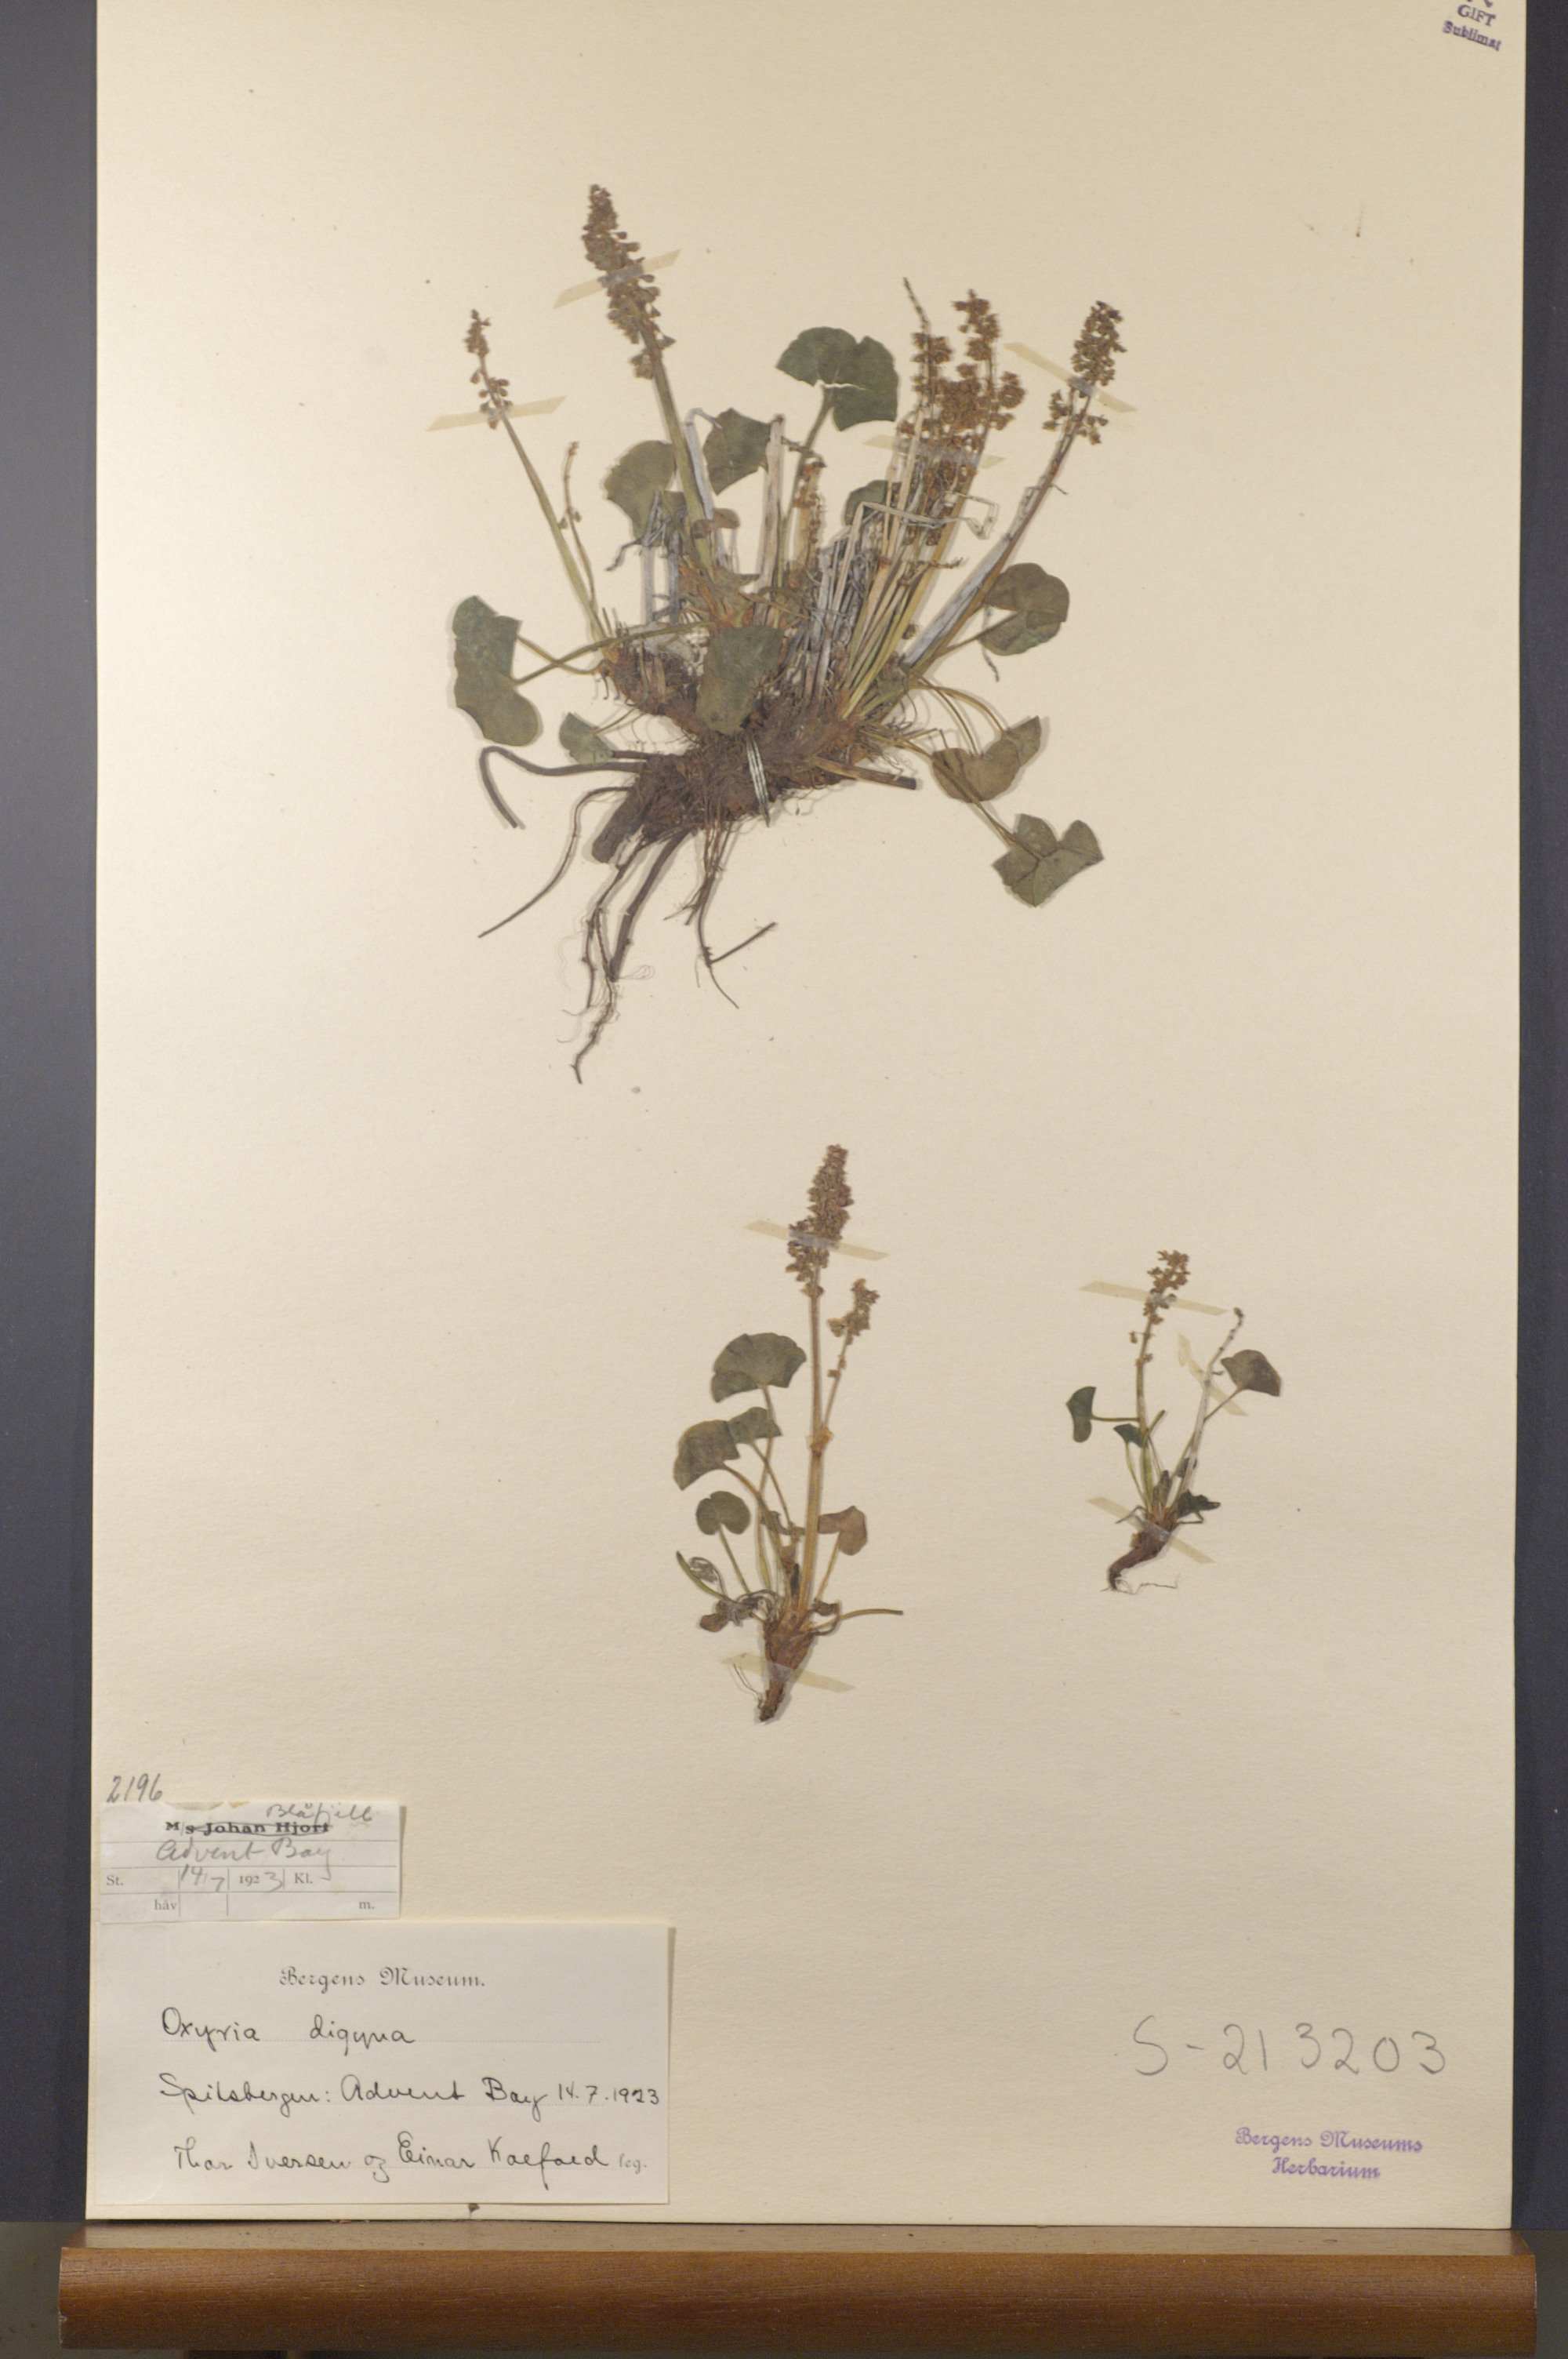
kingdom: Plantae
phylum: Tracheophyta
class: Magnoliopsida
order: Caryophyllales
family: Polygonaceae
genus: Oxyria
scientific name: Oxyria digyna
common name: Alpine mountain-sorrel
